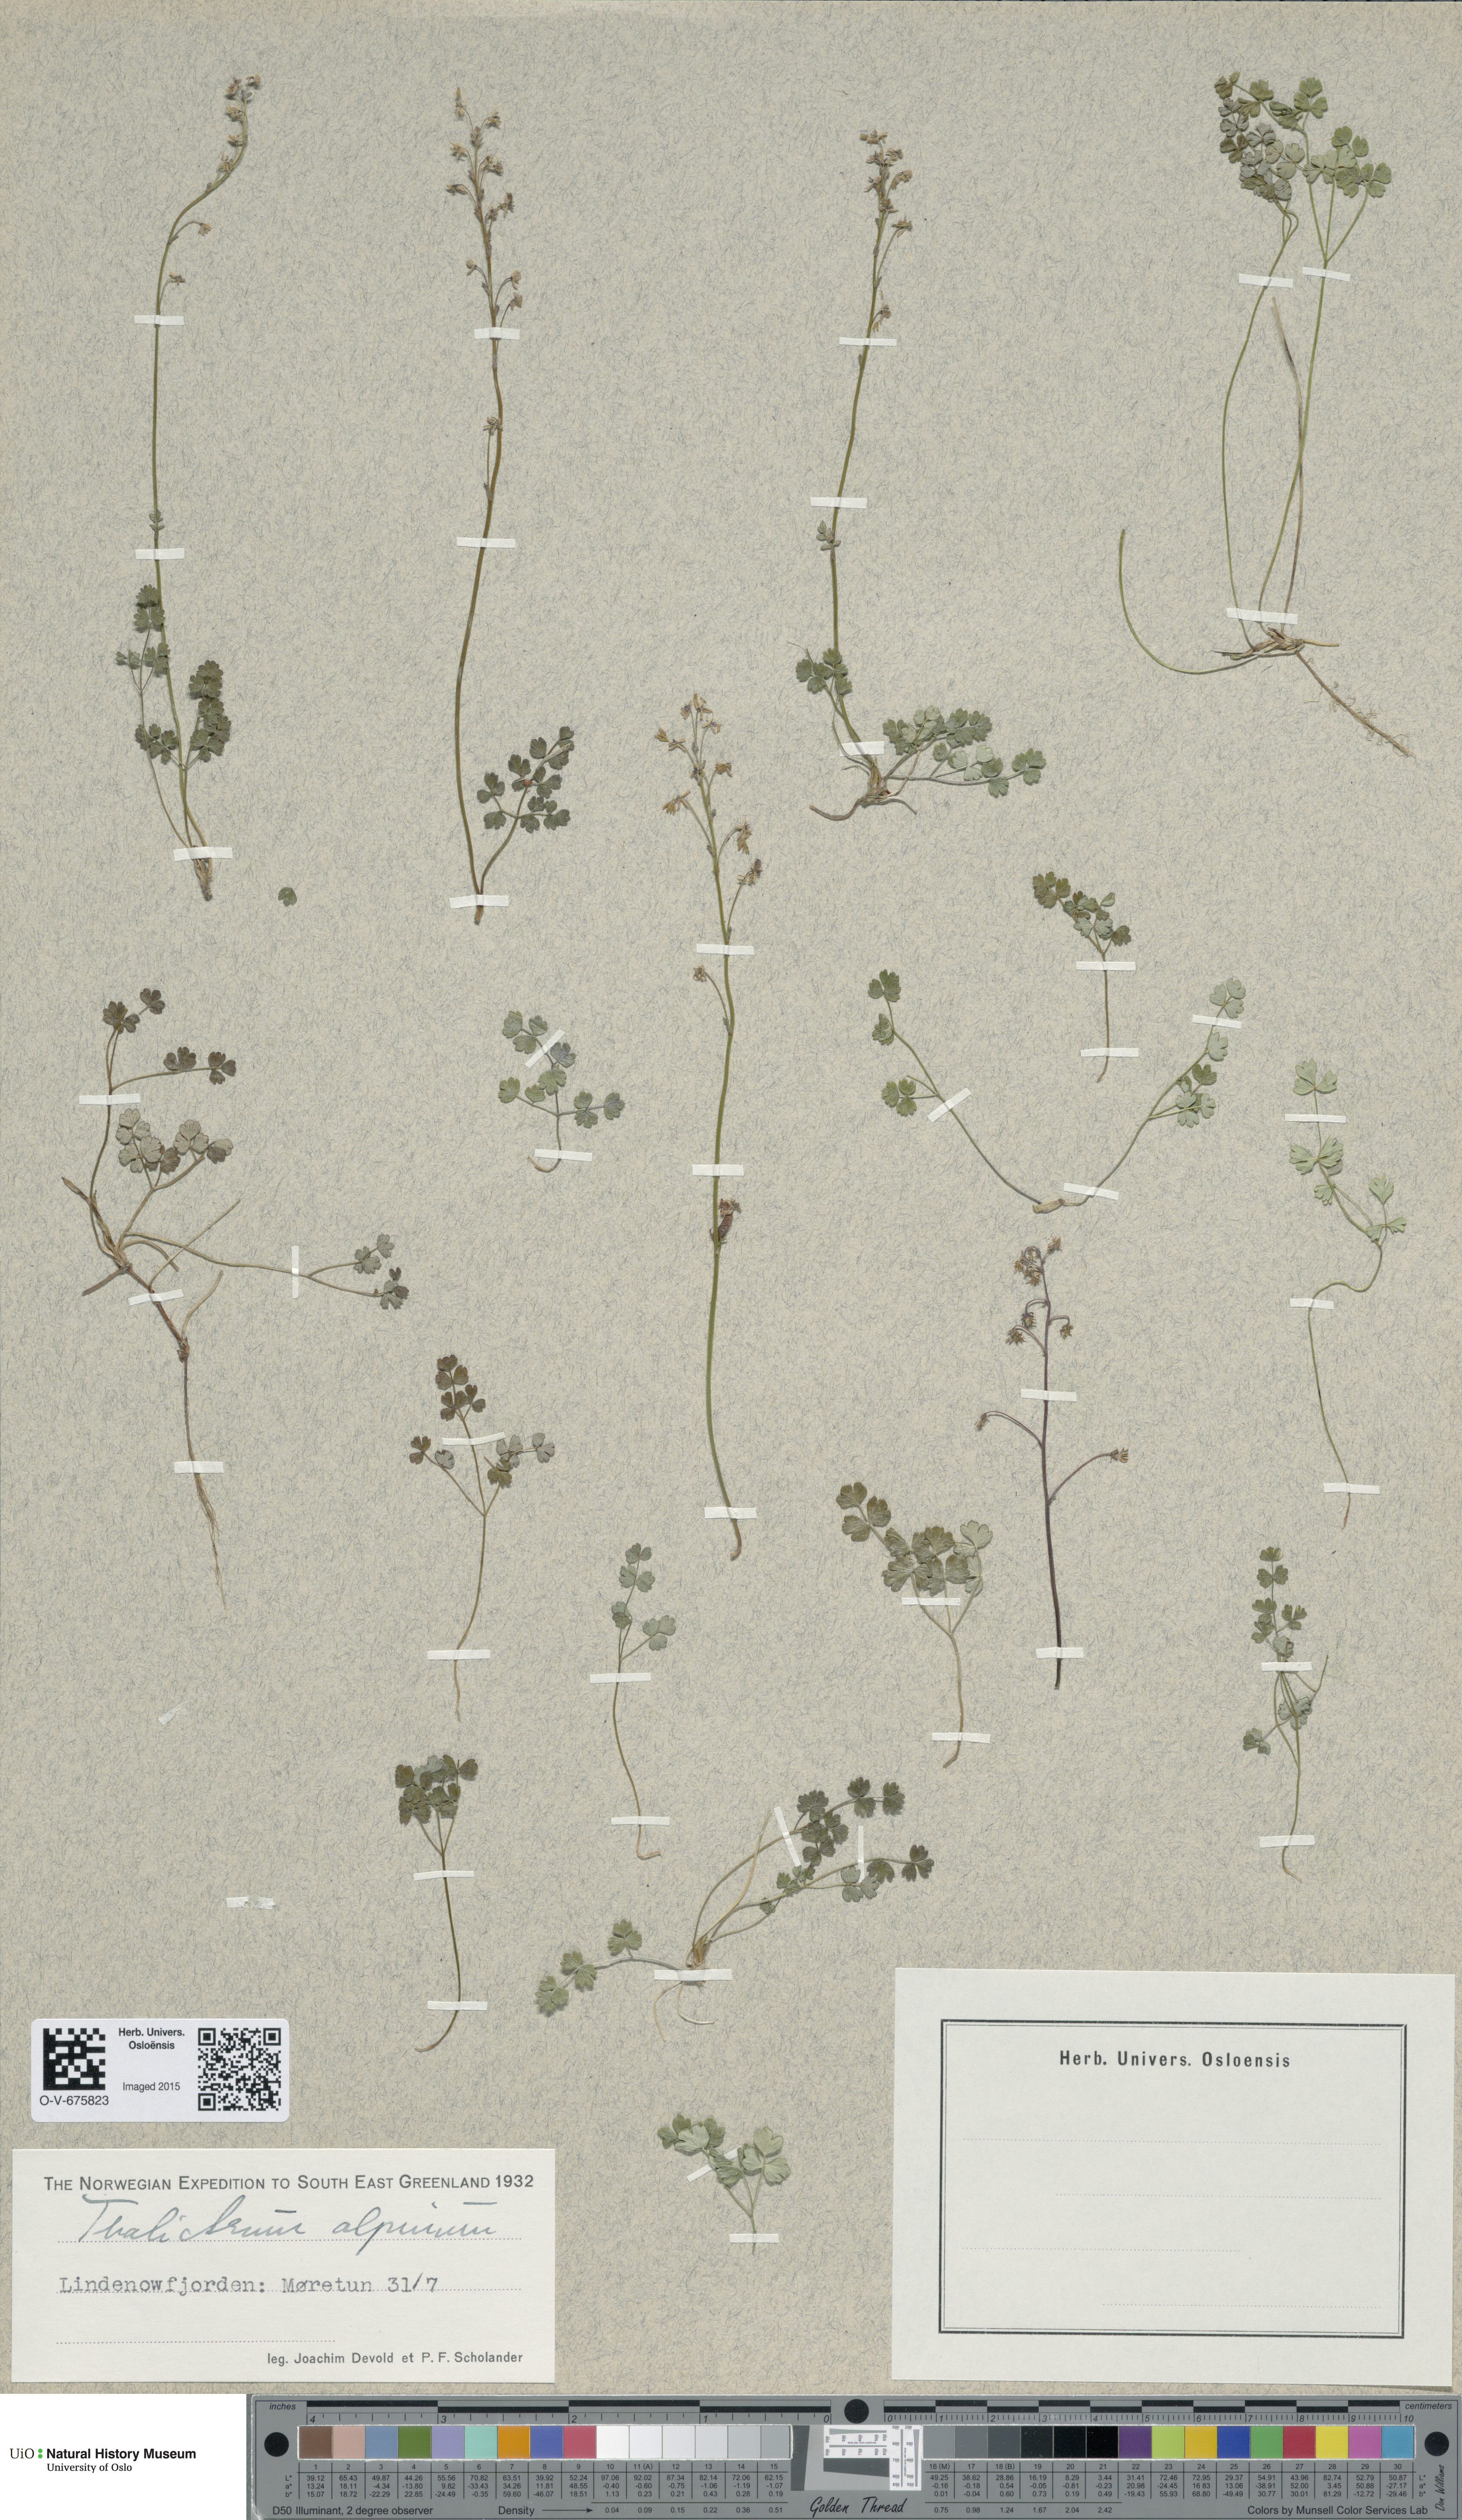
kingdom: Plantae
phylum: Tracheophyta
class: Magnoliopsida
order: Ranunculales
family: Ranunculaceae
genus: Thalictrum
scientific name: Thalictrum alpinum
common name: Alpine meadow-rue
